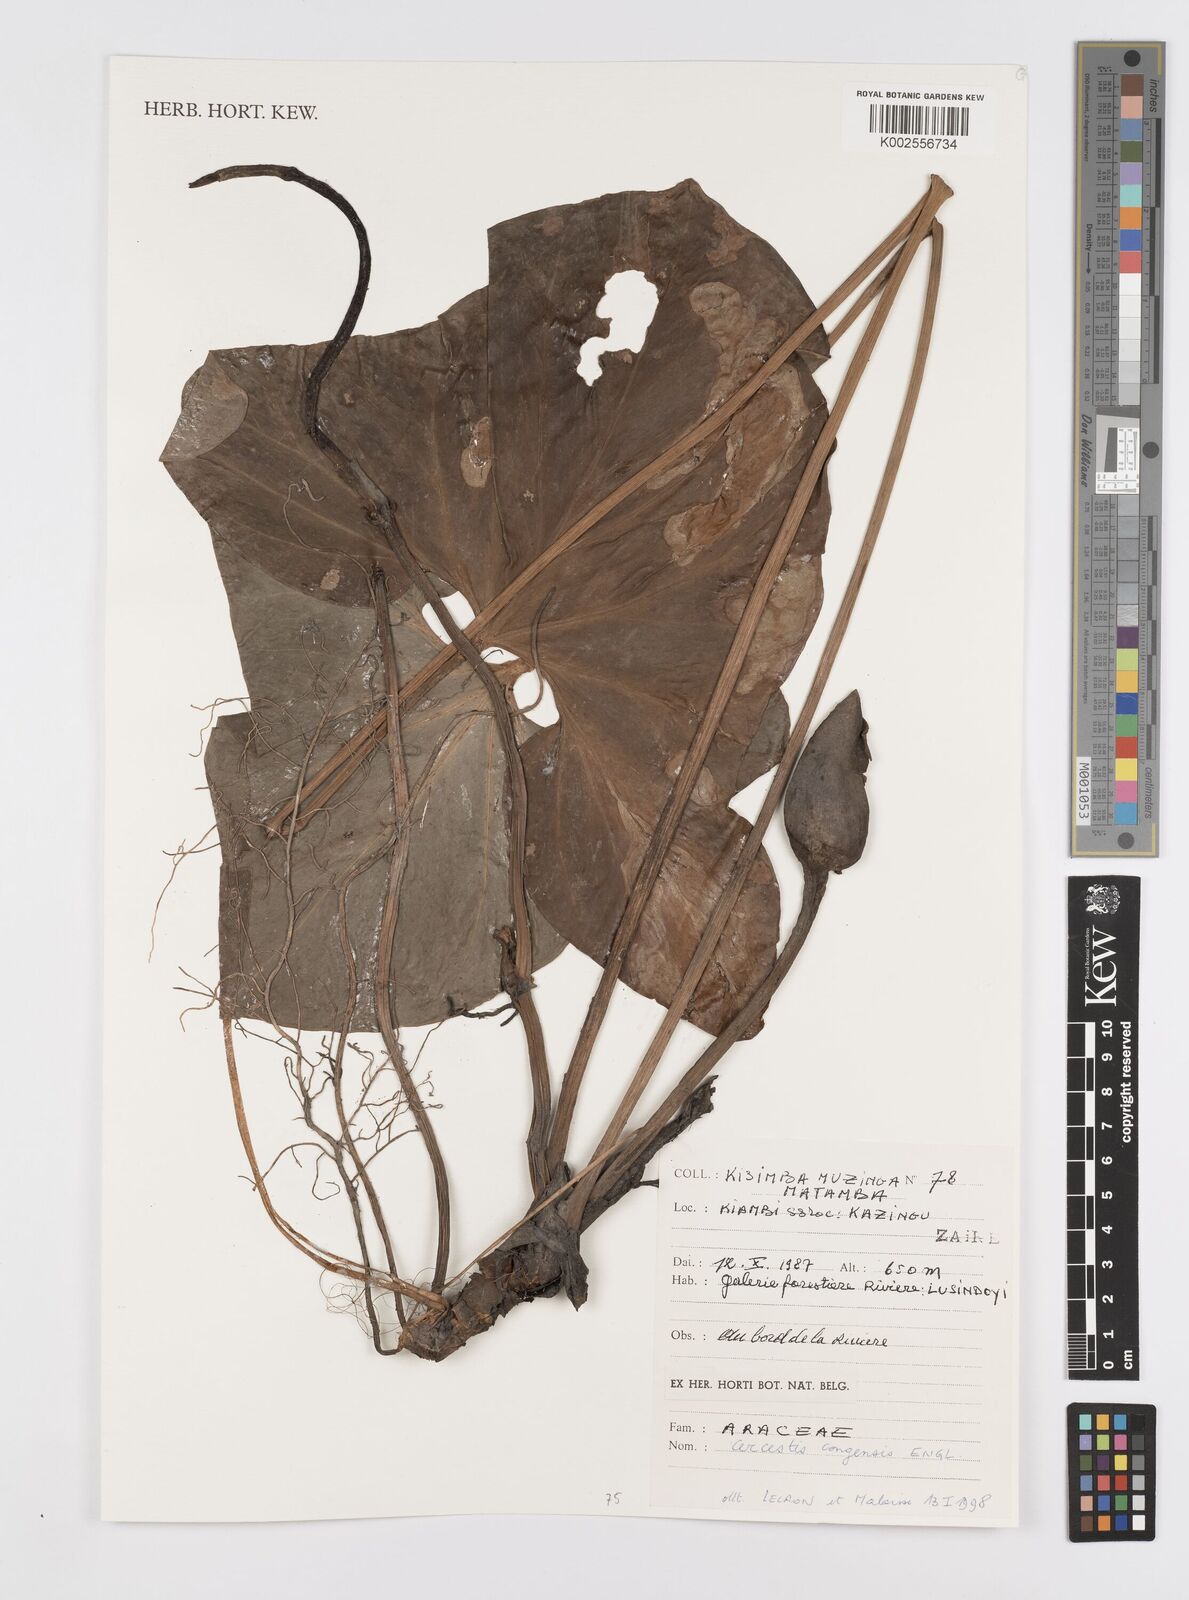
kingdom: Plantae
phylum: Tracheophyta
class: Liliopsida
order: Alismatales
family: Araceae
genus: Cercestis
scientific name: Cercestis congoensis
